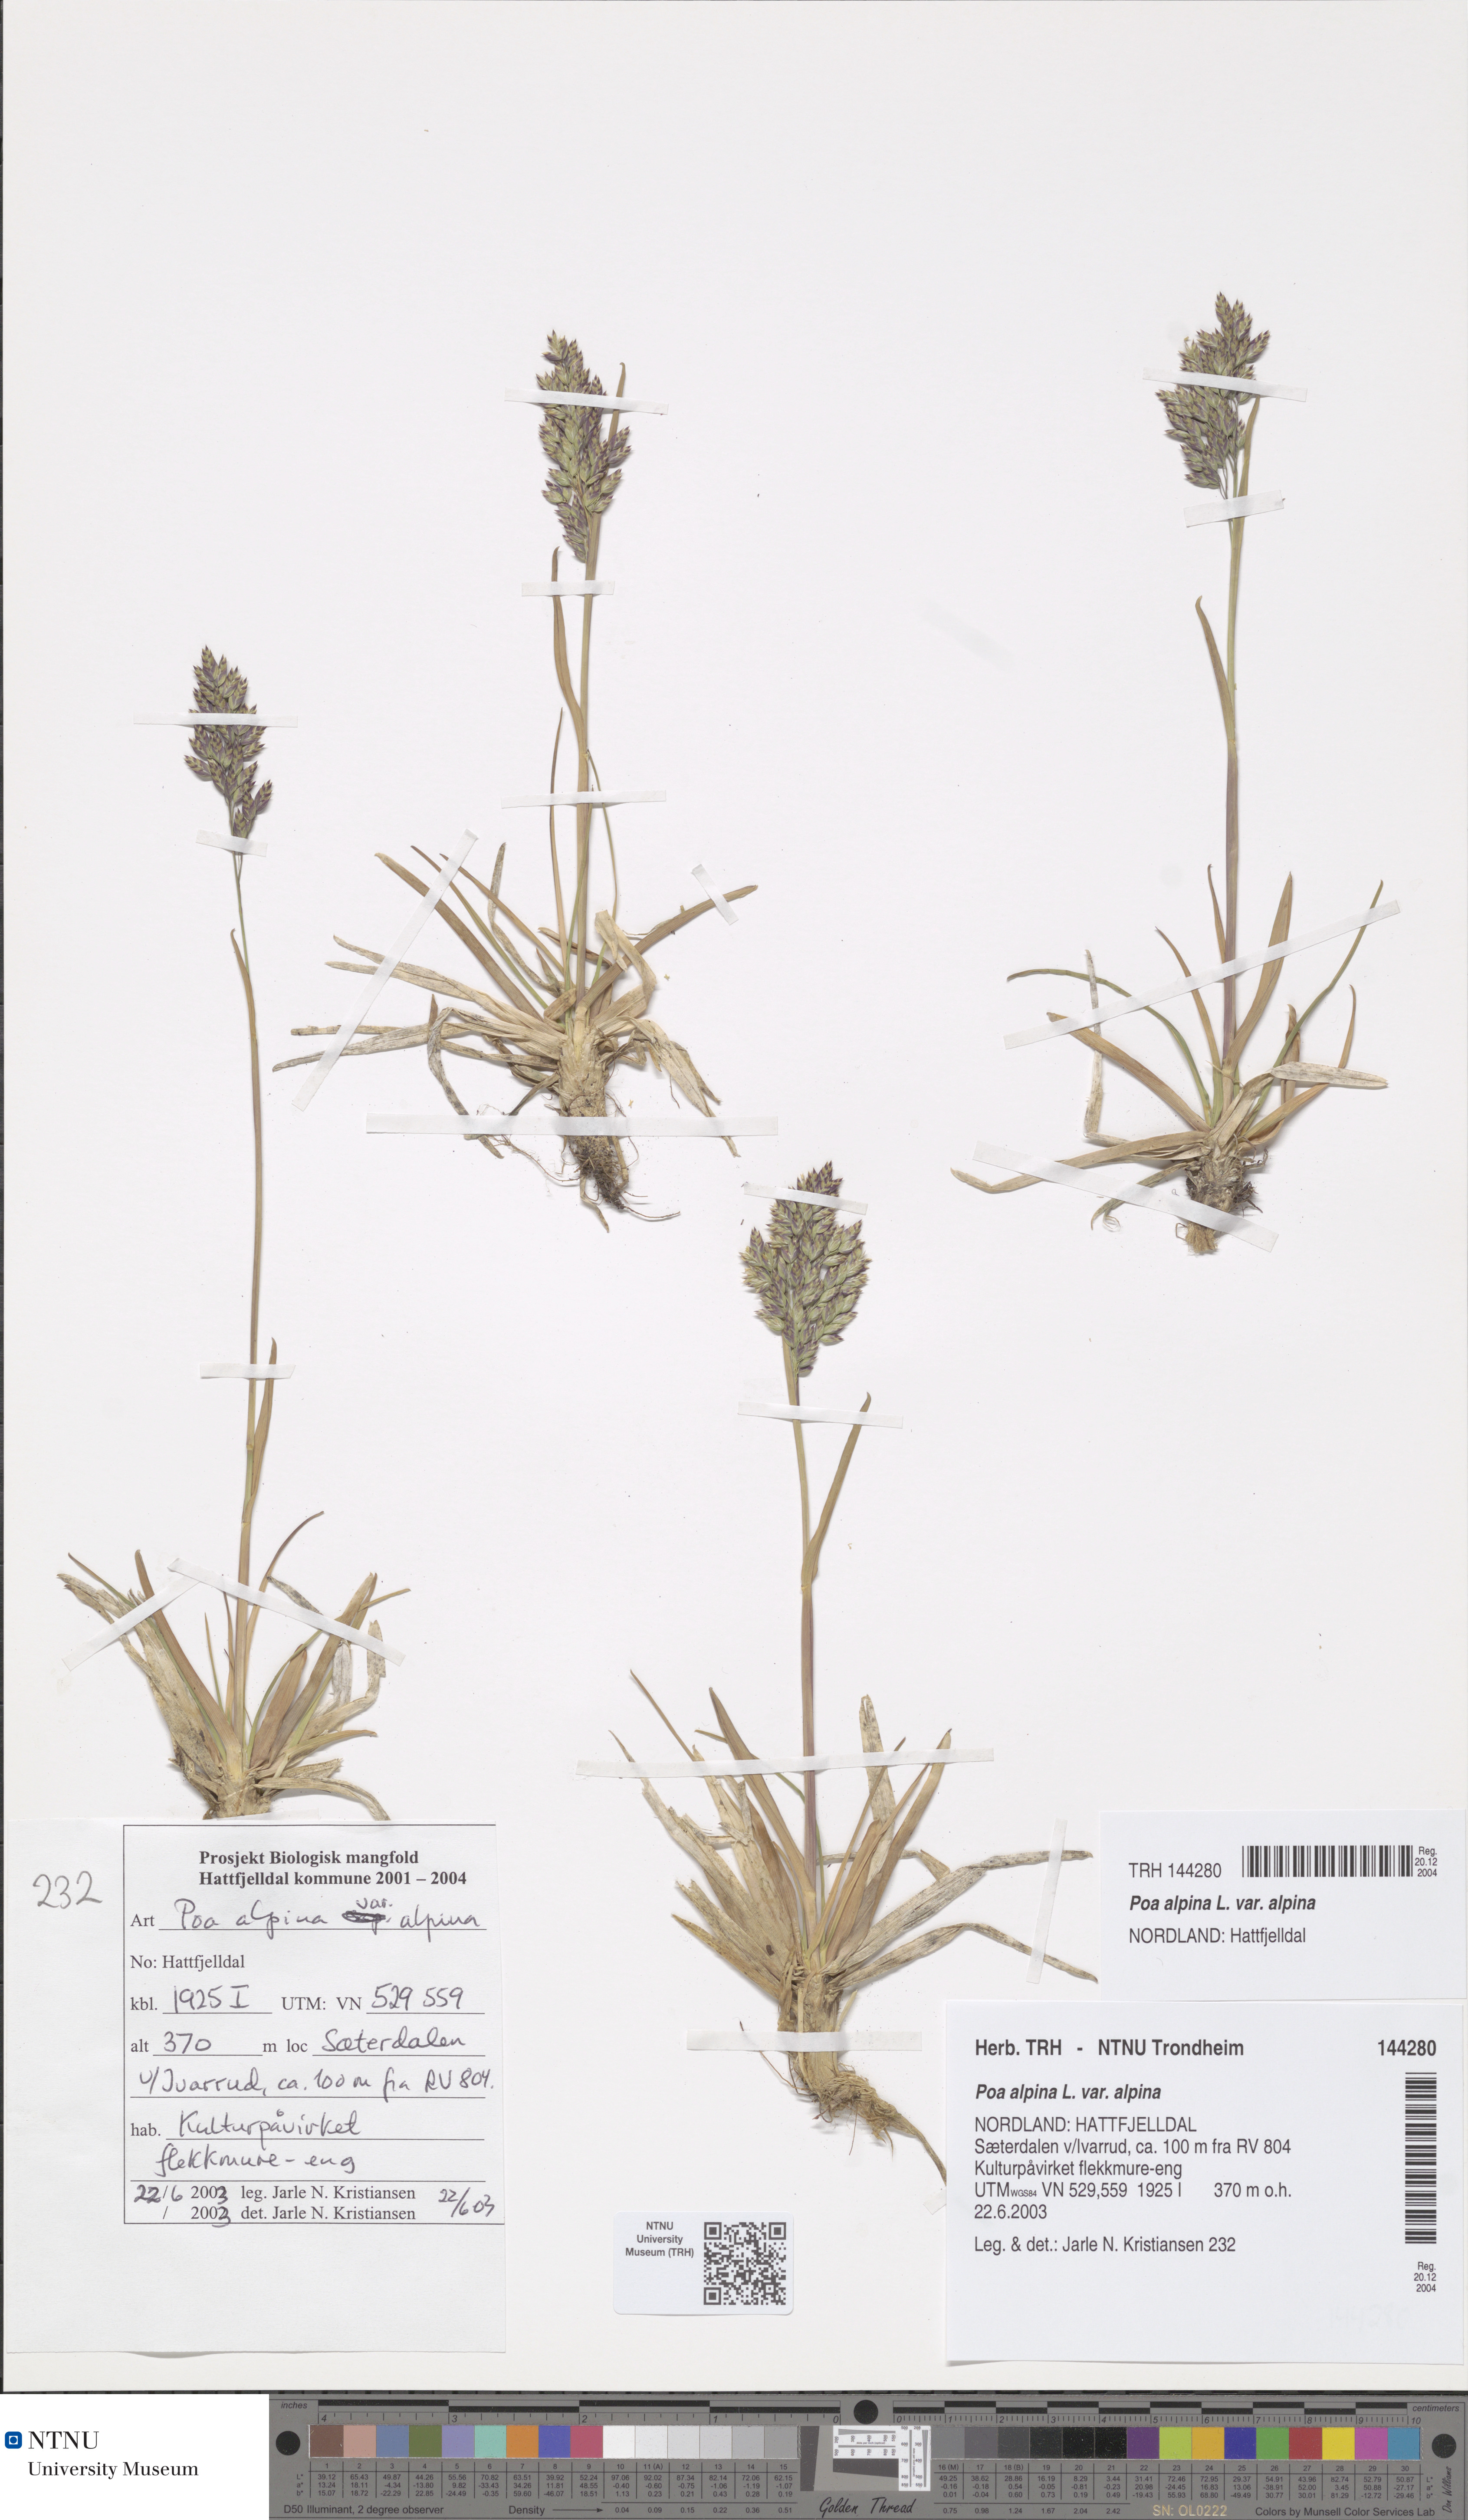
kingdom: Plantae
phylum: Tracheophyta
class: Liliopsida
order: Poales
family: Poaceae
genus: Poa
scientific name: Poa alpina
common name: Alpine bluegrass
